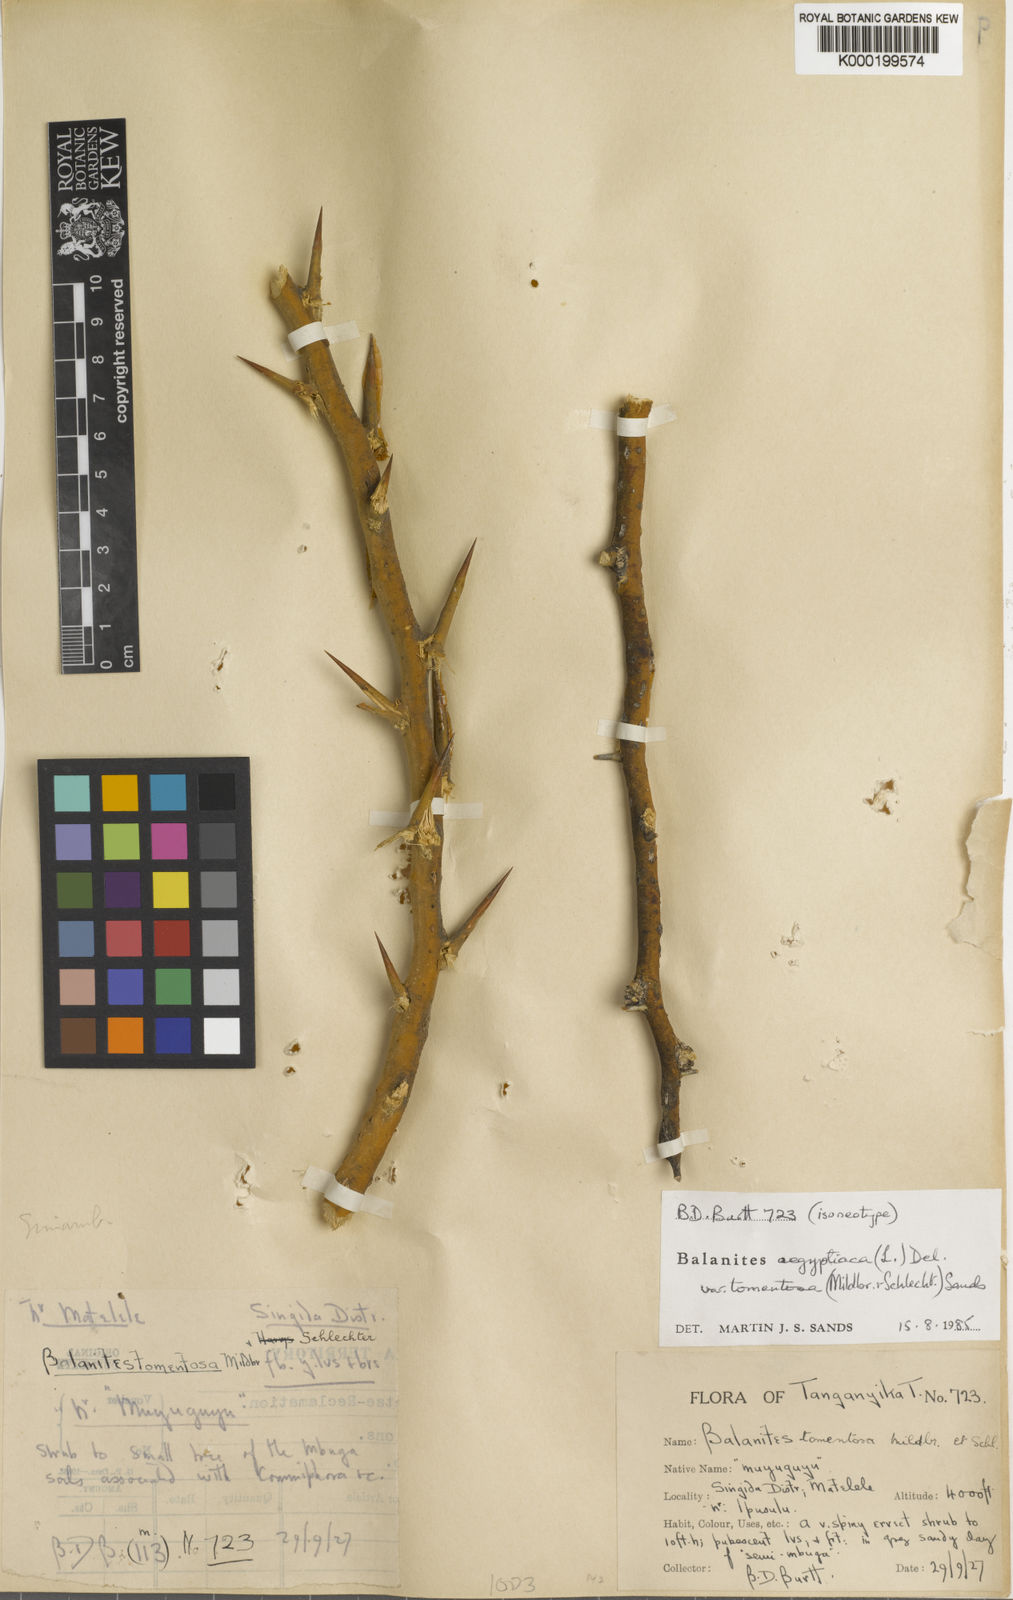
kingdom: Plantae
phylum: Tracheophyta
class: Magnoliopsida
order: Zygophyllales
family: Zygophyllaceae
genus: Balanites
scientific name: Balanites aegyptiaca
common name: Balanites
